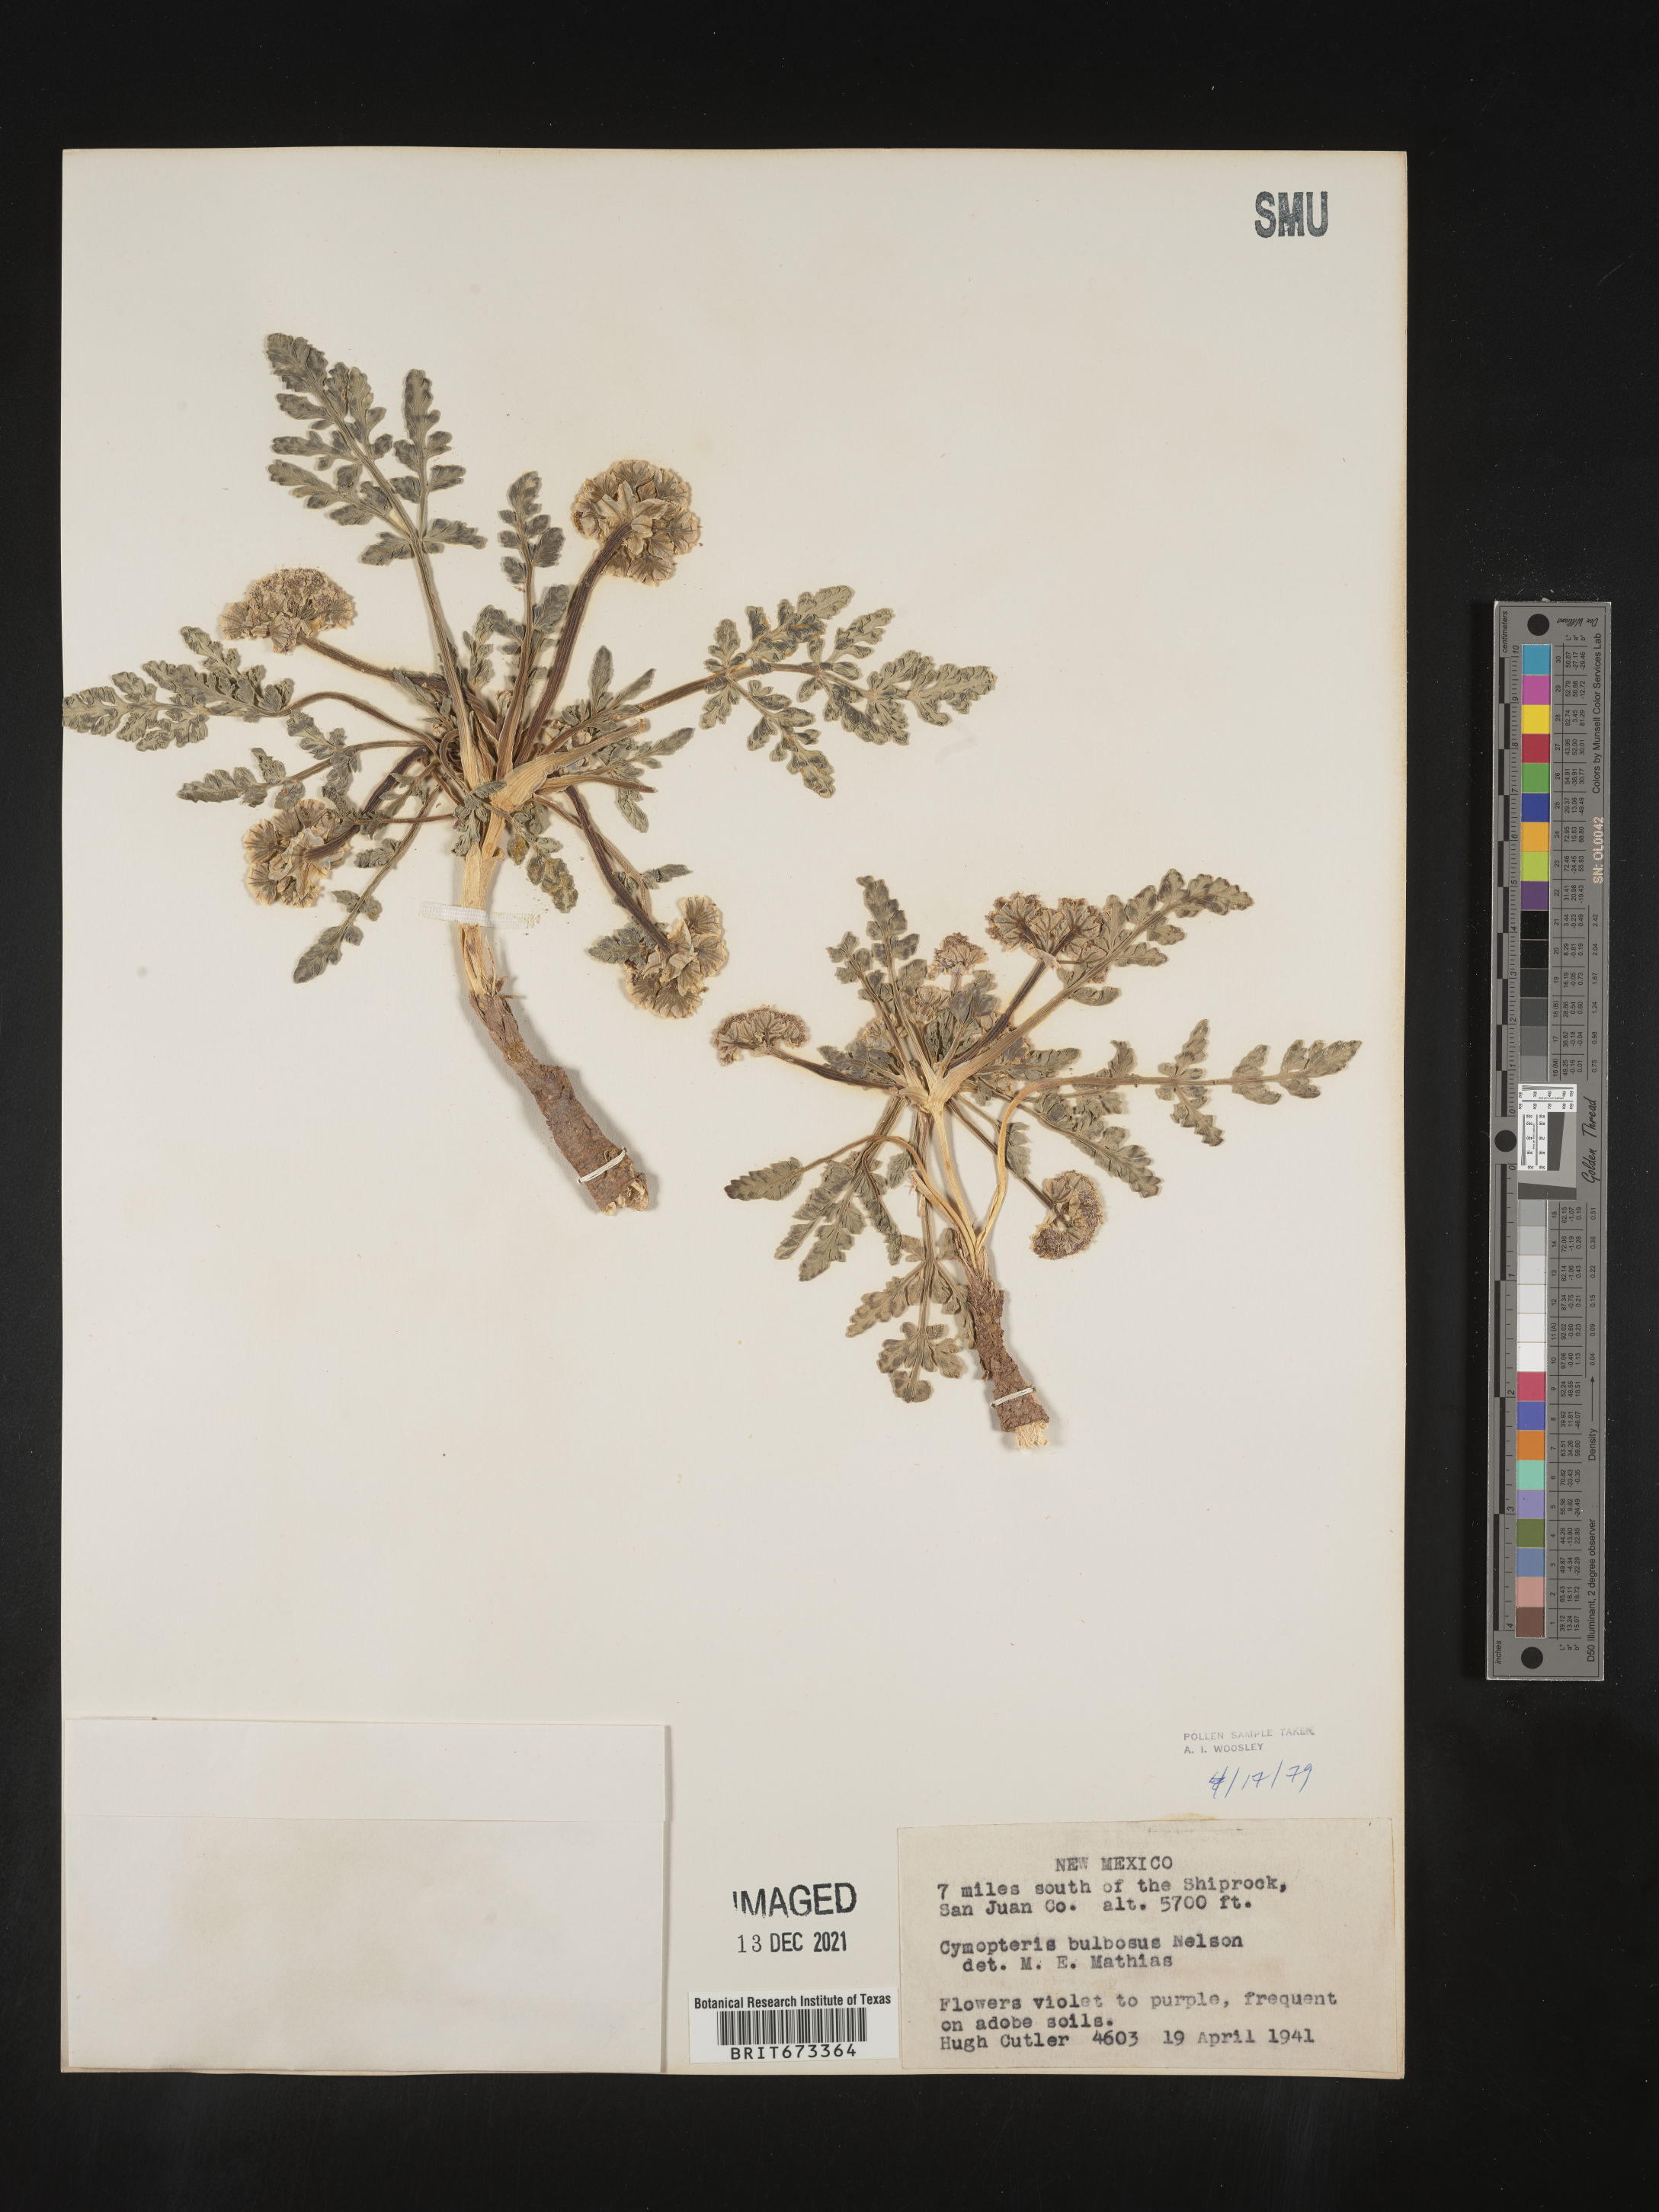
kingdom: Plantae
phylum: Tracheophyta
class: Magnoliopsida
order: Apiales
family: Apiaceae
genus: Vesper
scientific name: Vesper bulbosus
